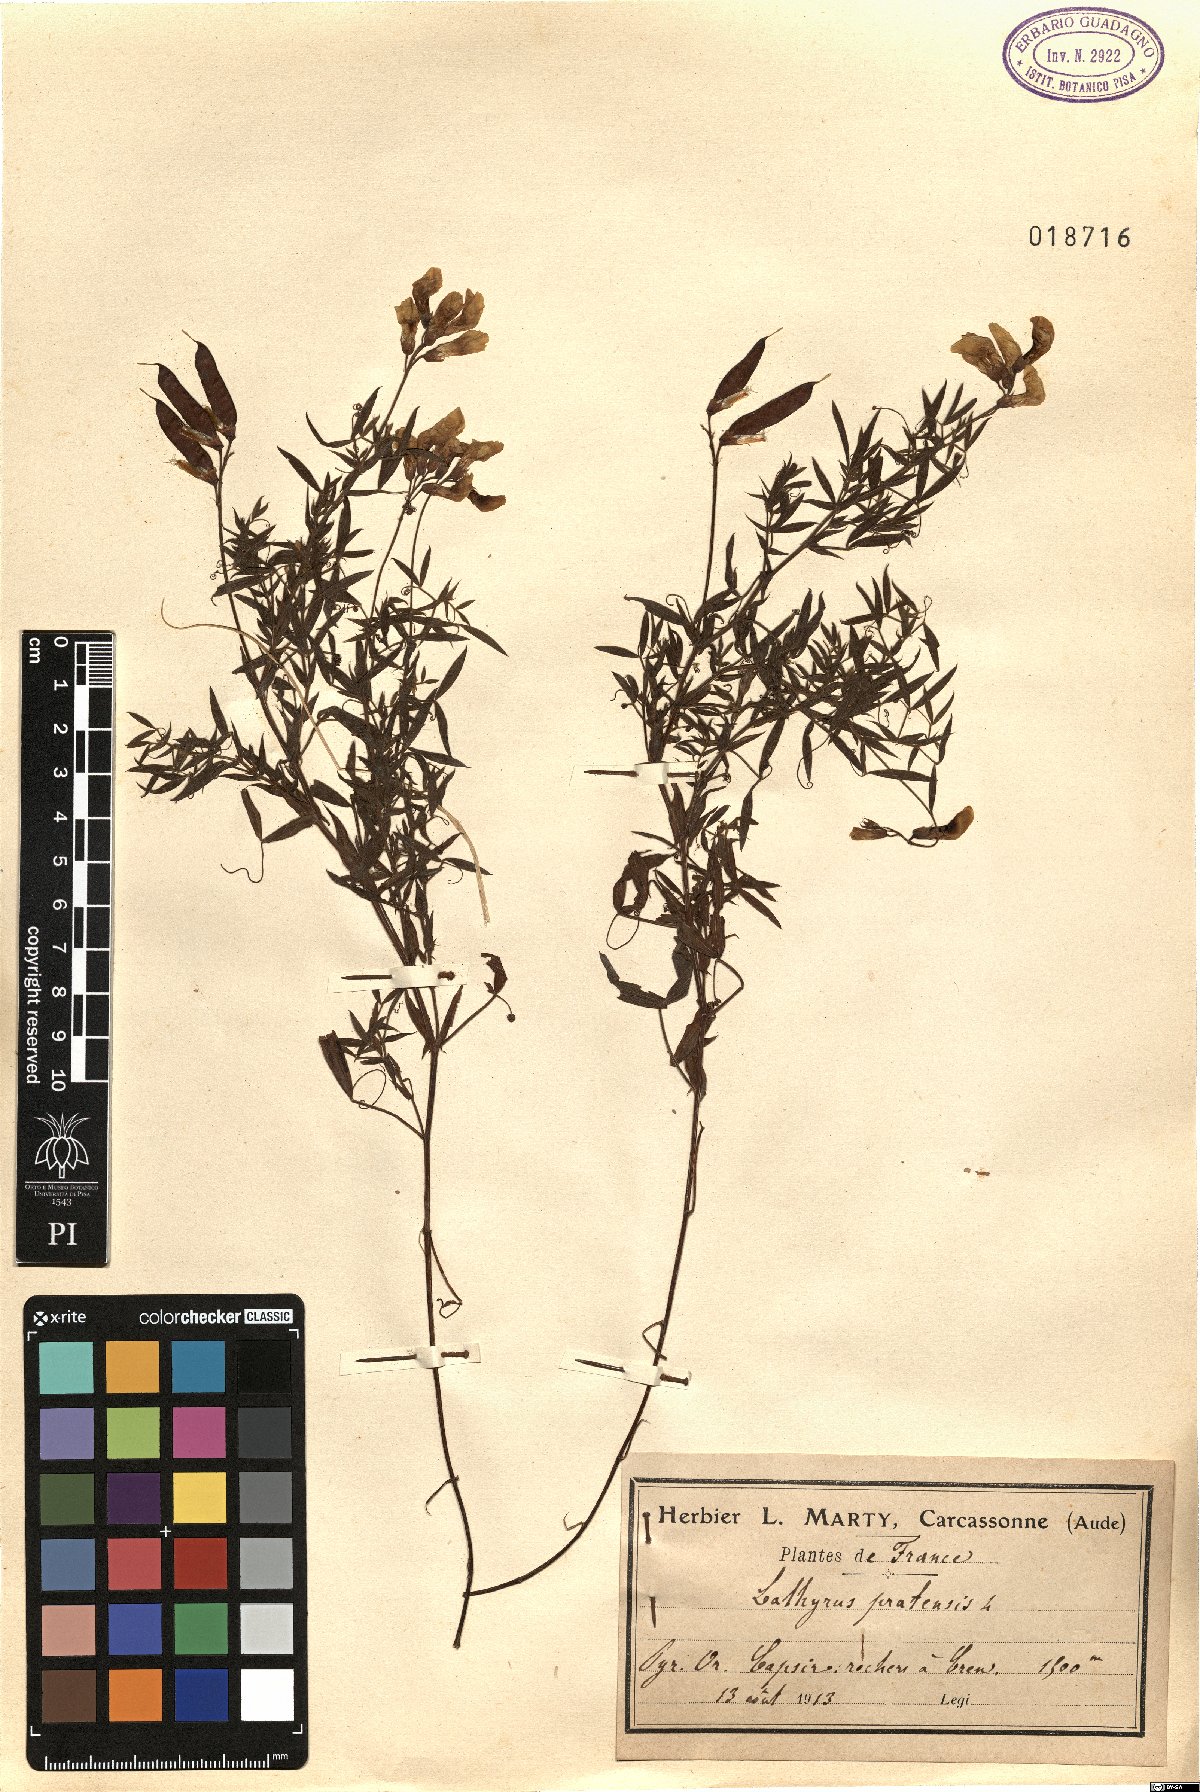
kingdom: Plantae
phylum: Tracheophyta
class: Magnoliopsida
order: Fabales
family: Fabaceae
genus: Lathyrus
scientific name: Lathyrus pratensis
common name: Meadow vetchling
